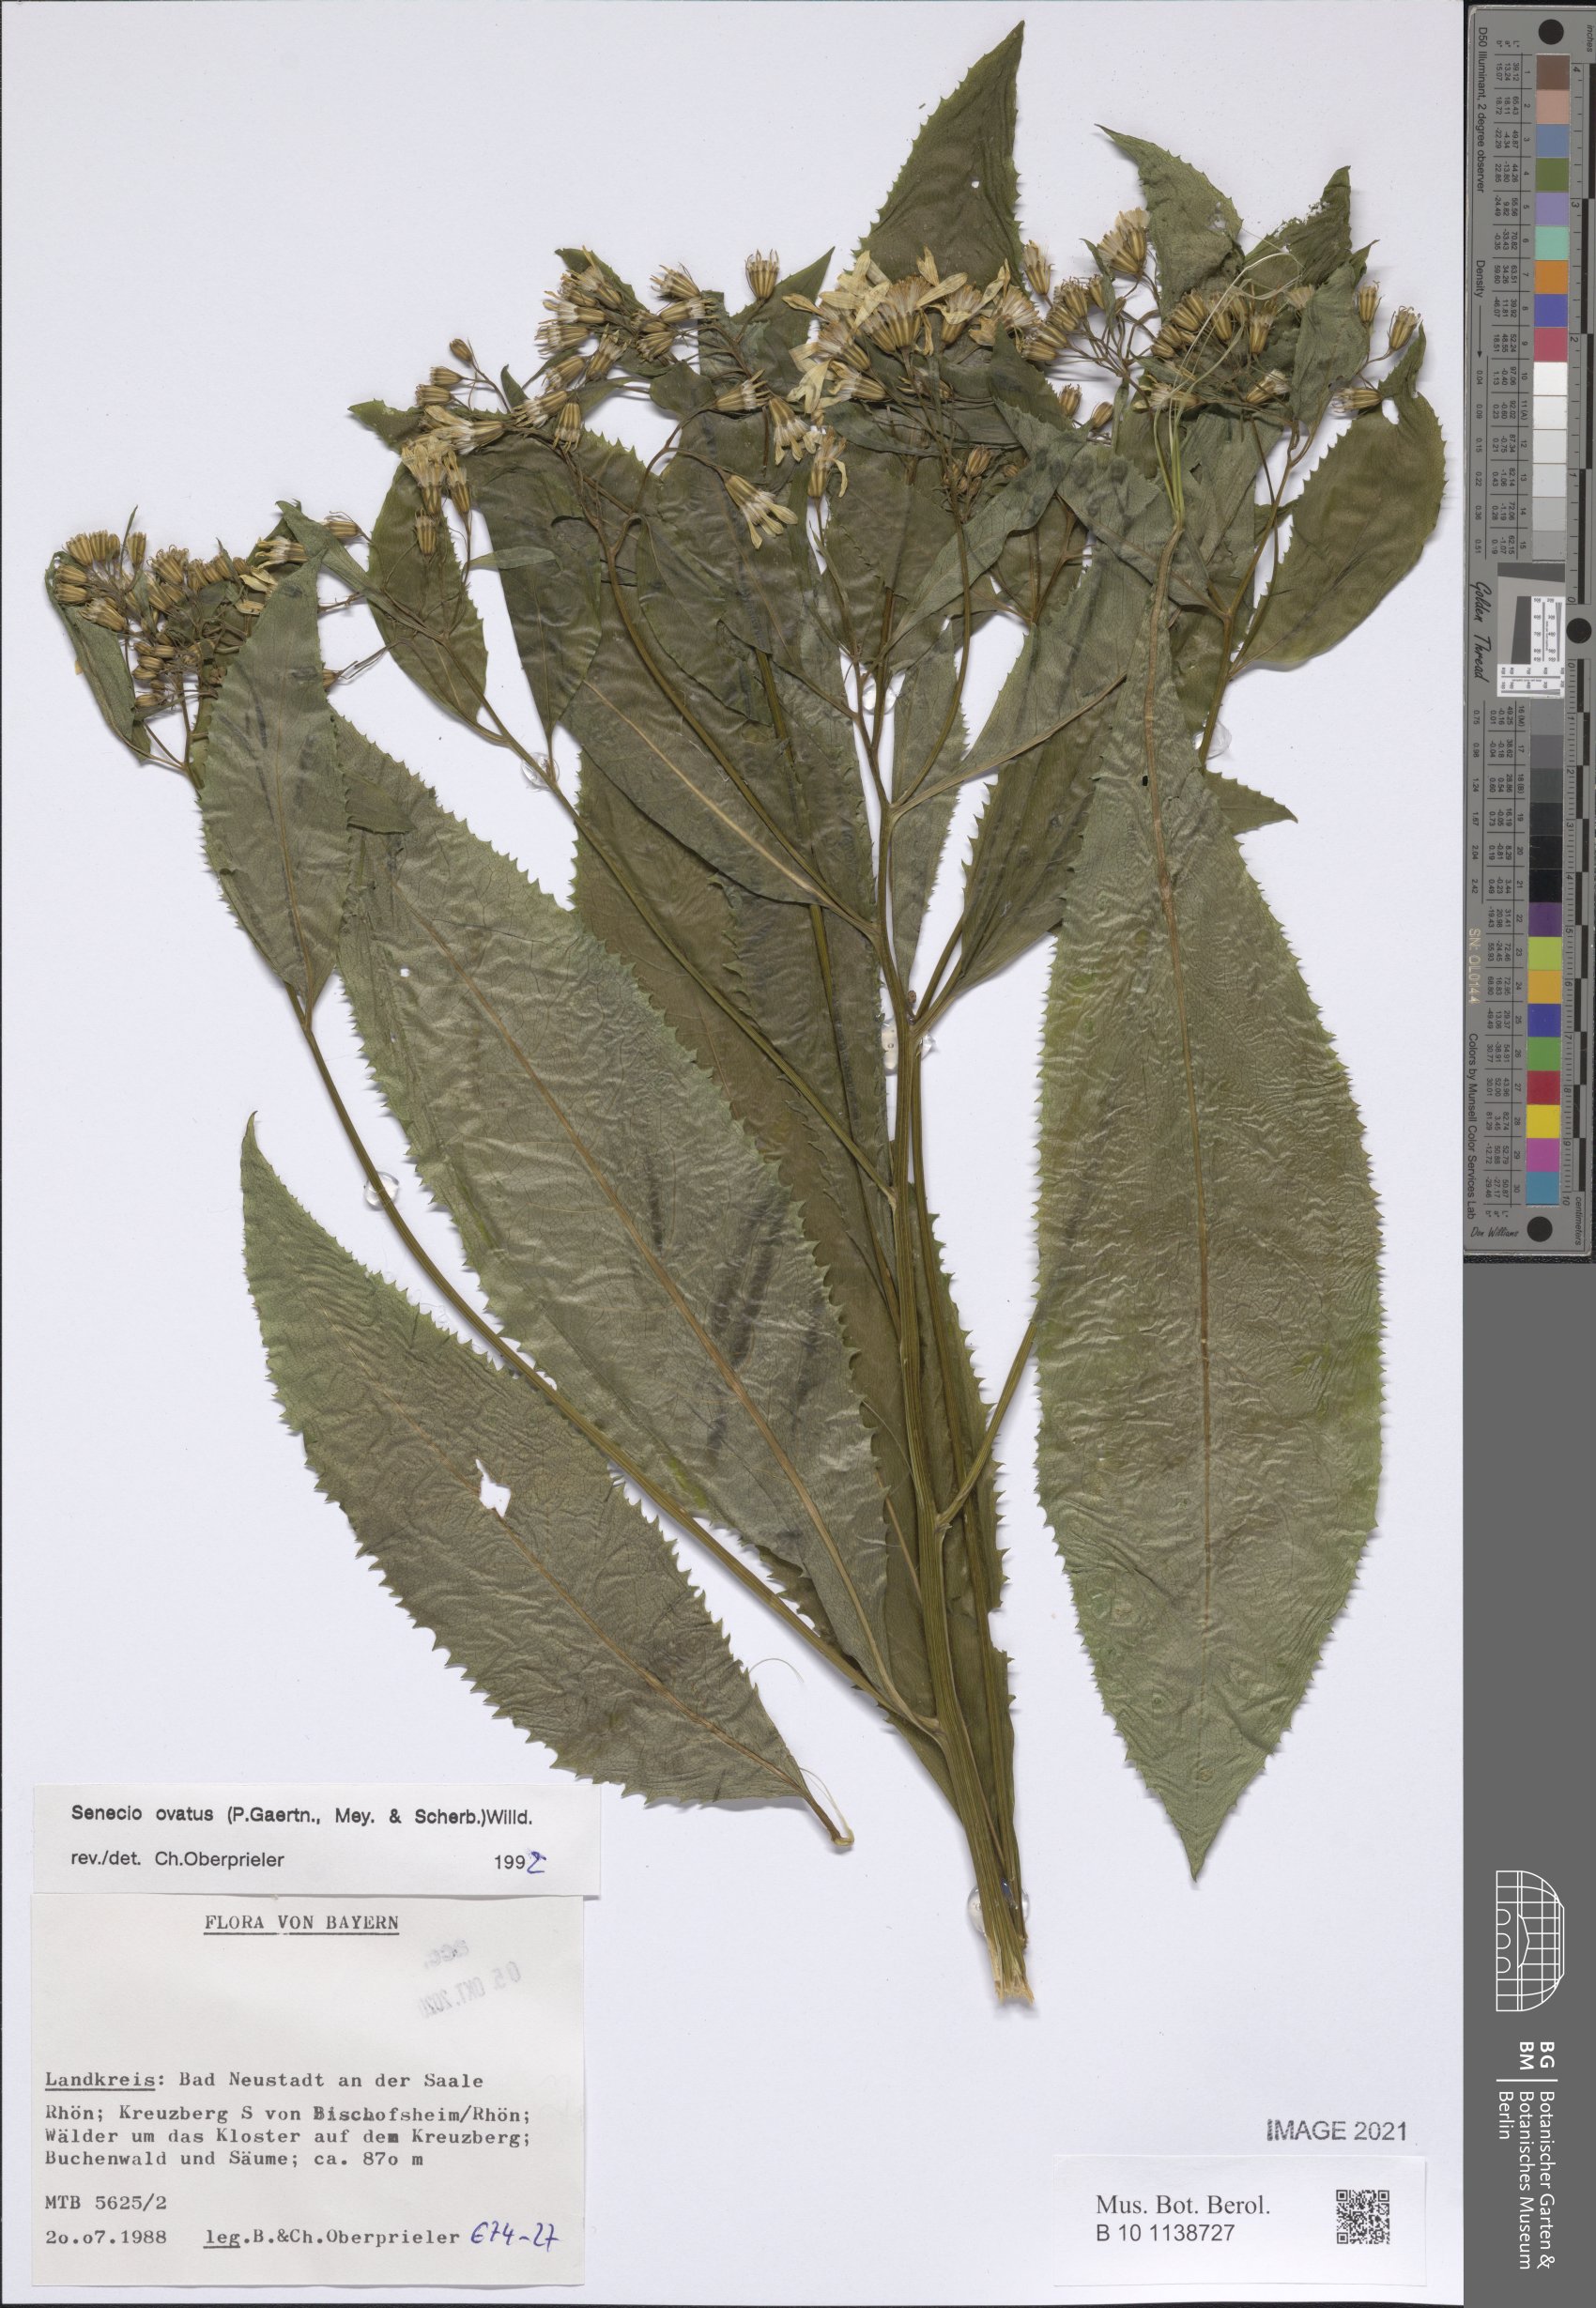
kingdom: Plantae
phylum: Tracheophyta
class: Magnoliopsida
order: Asterales
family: Asteraceae
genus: Senecio
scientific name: Senecio ovatus
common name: Wood ragwort
